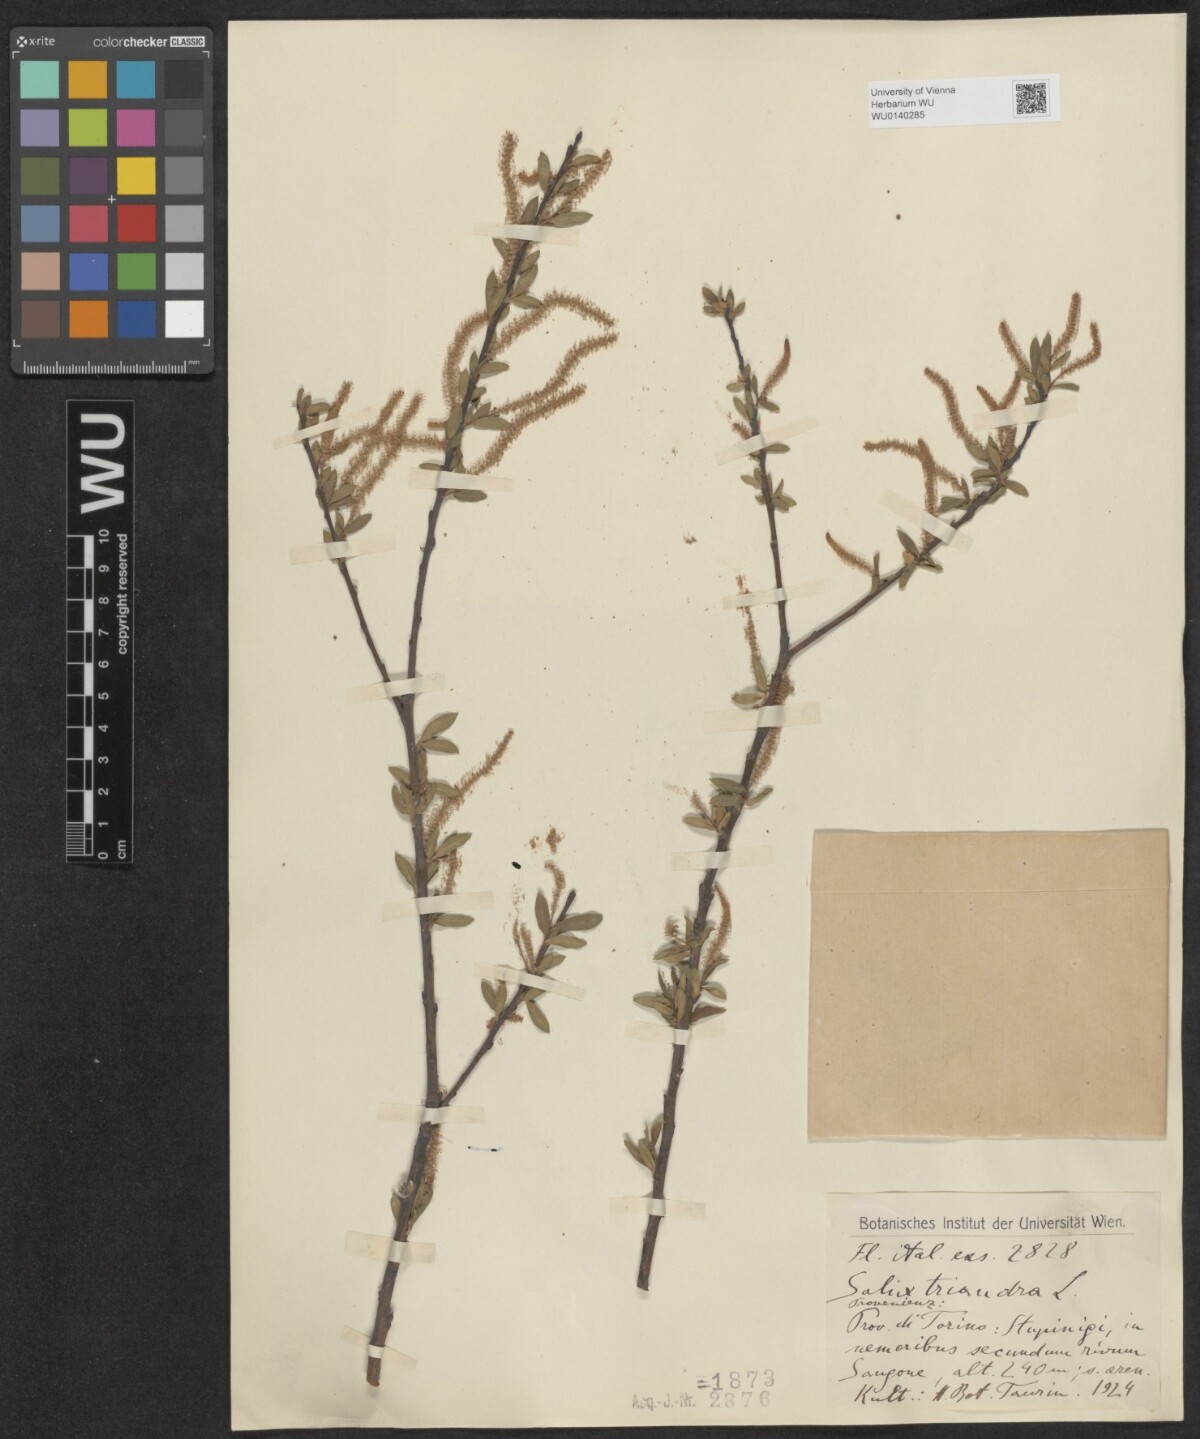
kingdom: Plantae
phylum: Tracheophyta
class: Magnoliopsida
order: Malpighiales
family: Salicaceae
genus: Salix
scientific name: Salix triandra
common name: Almond willow
